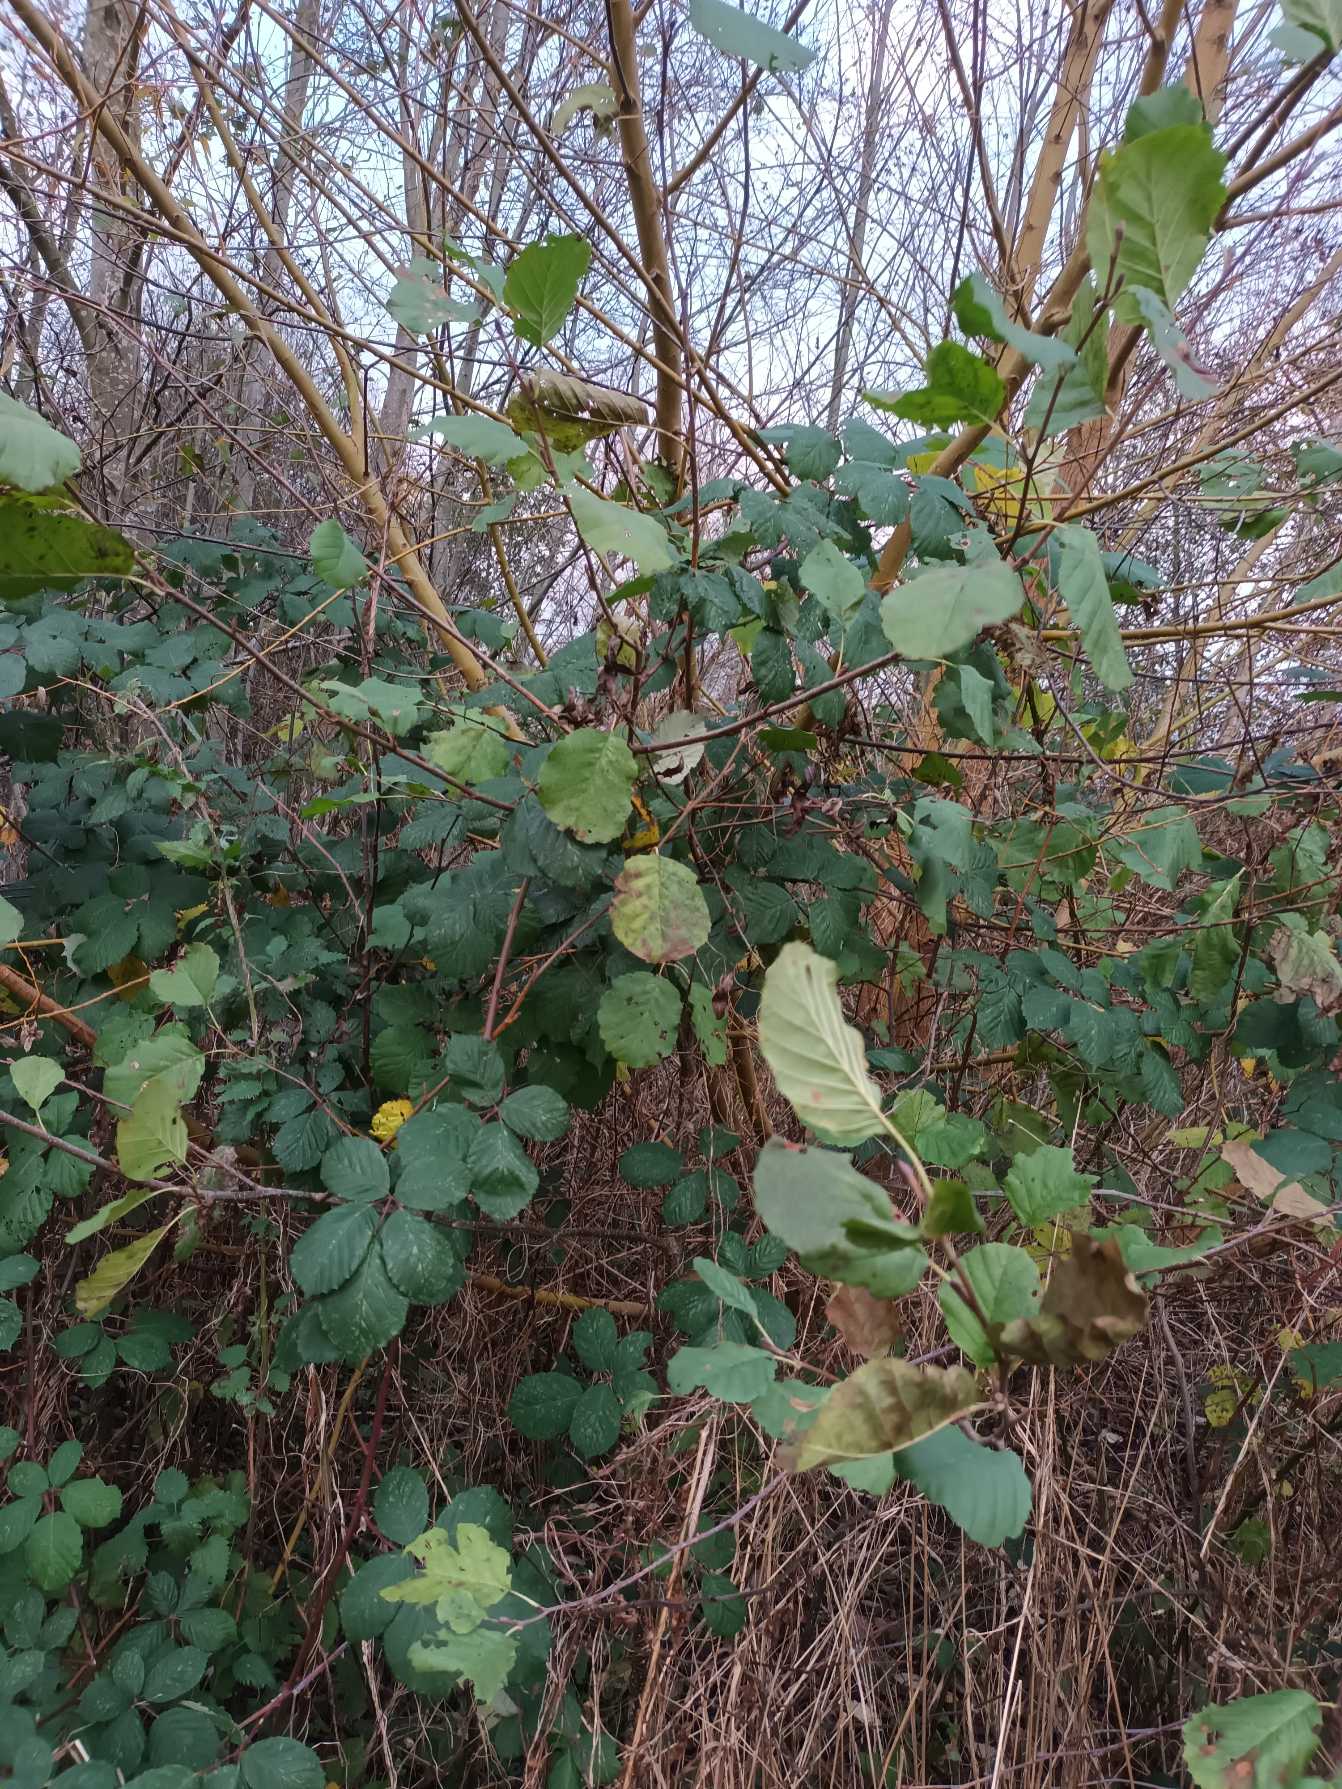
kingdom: Plantae
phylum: Tracheophyta
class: Magnoliopsida
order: Fagales
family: Betulaceae
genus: Alnus
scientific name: Alnus glutinosa
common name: Rød-el
